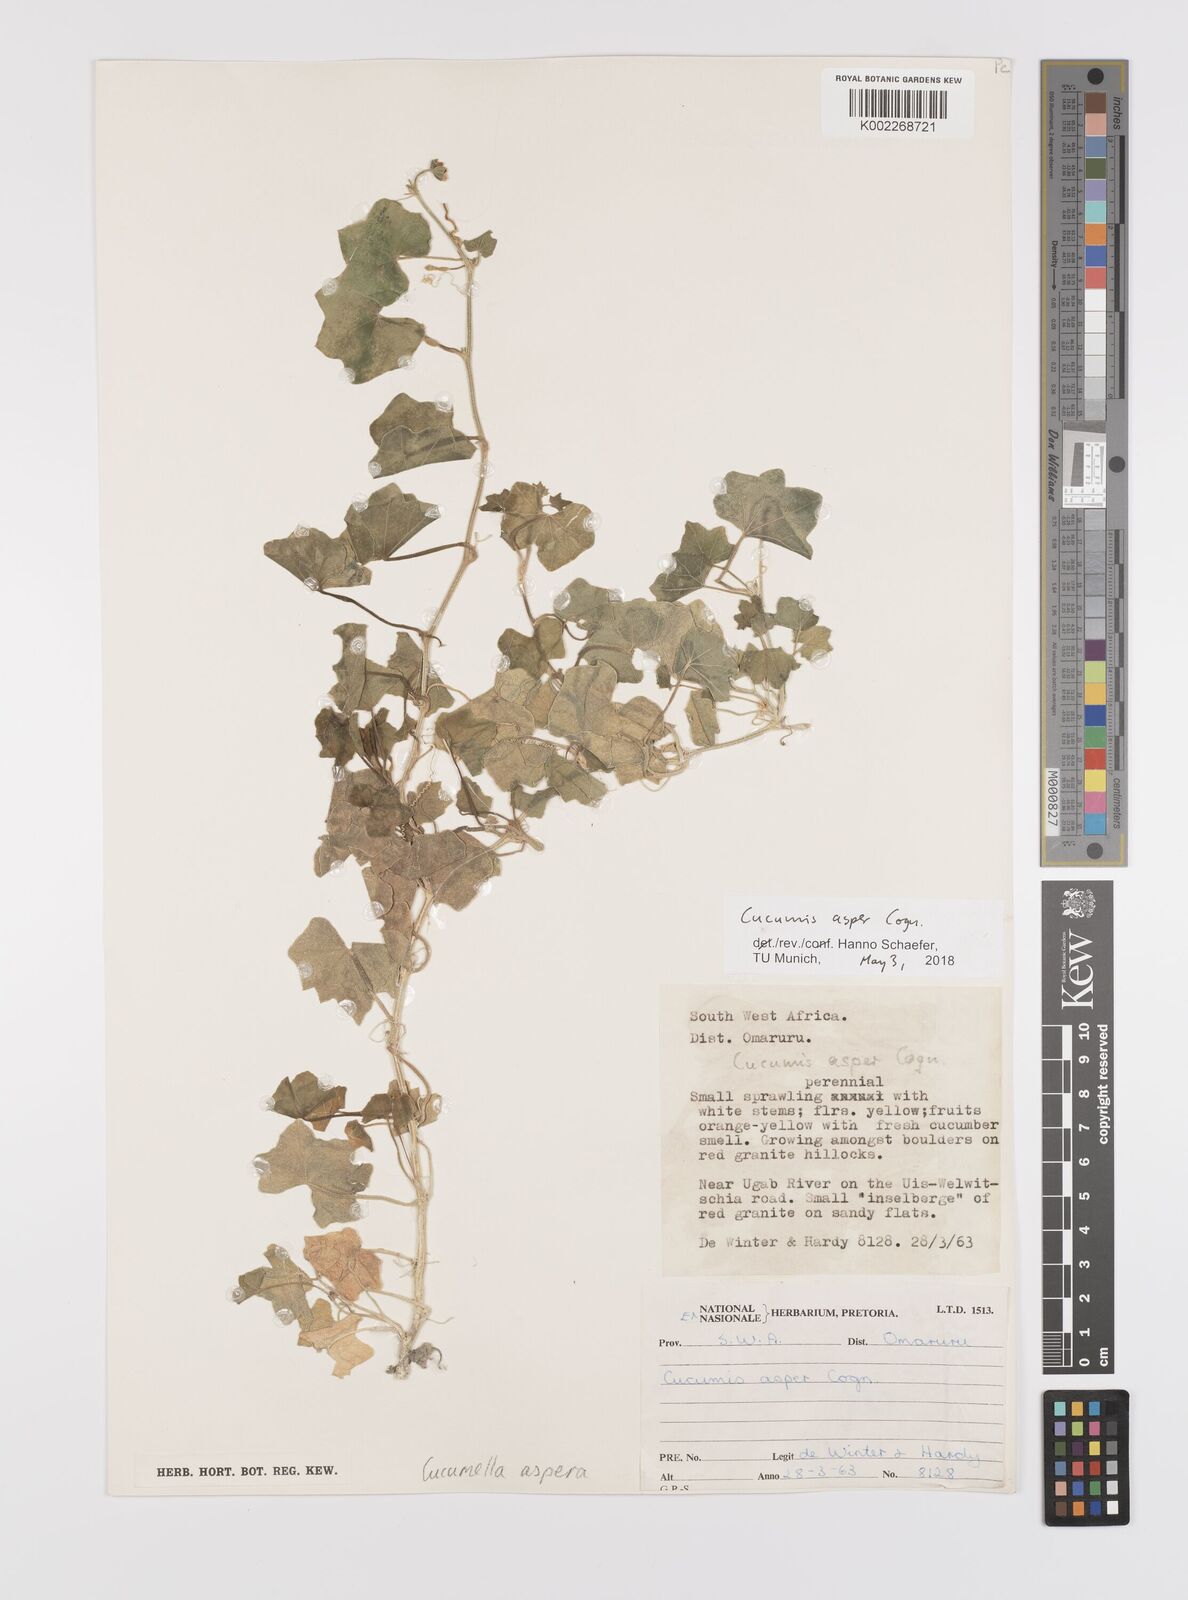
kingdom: Plantae
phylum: Tracheophyta
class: Magnoliopsida
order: Cucurbitales
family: Cucurbitaceae
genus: Cucumis
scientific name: Cucumis asper
